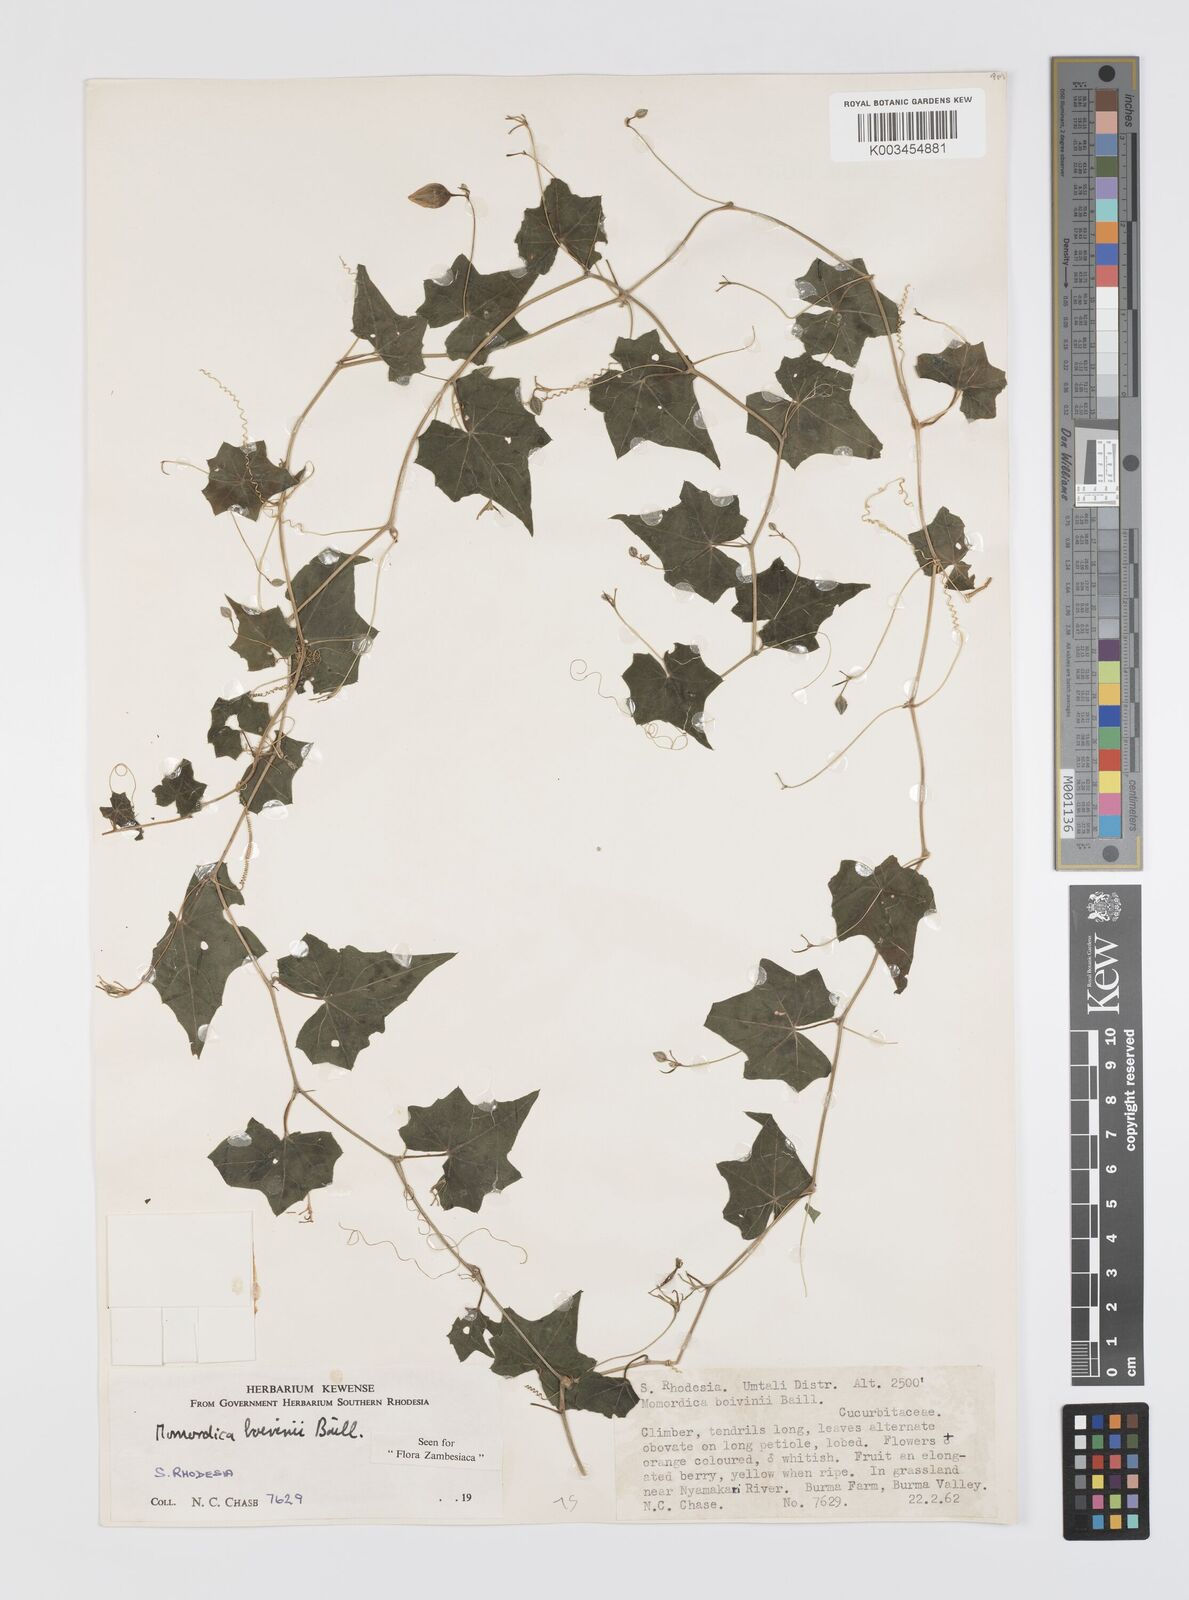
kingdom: Plantae
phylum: Tracheophyta
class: Magnoliopsida
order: Cucurbitales
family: Cucurbitaceae
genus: Momordica
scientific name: Momordica boivinii
